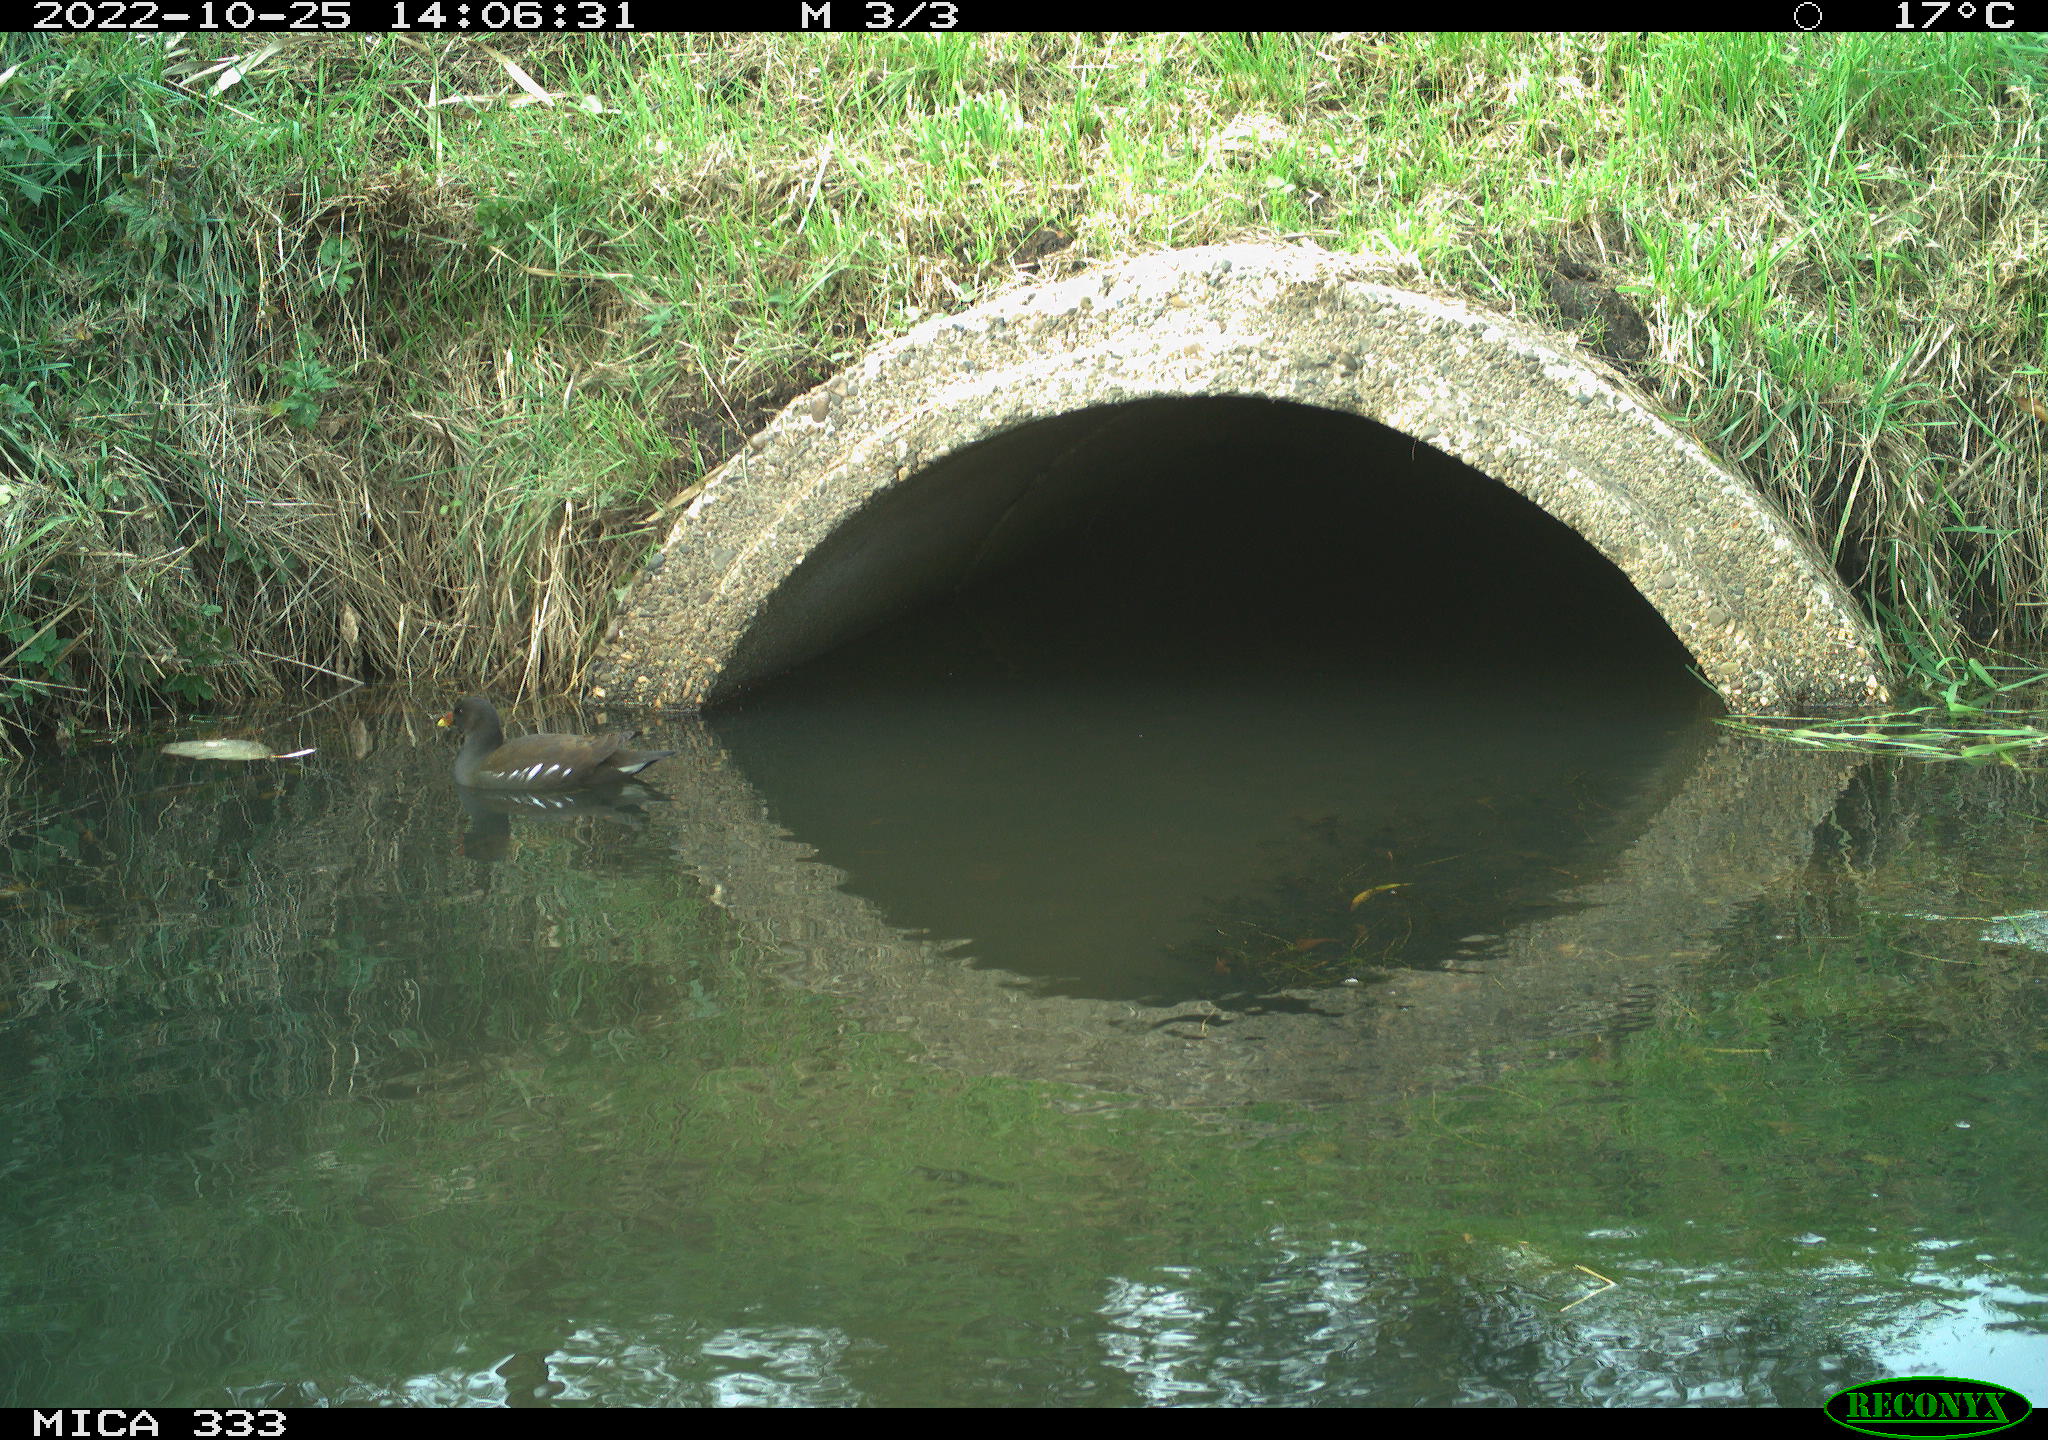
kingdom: Animalia
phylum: Chordata
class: Aves
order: Gruiformes
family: Rallidae
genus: Gallinula
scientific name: Gallinula chloropus
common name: Common moorhen
